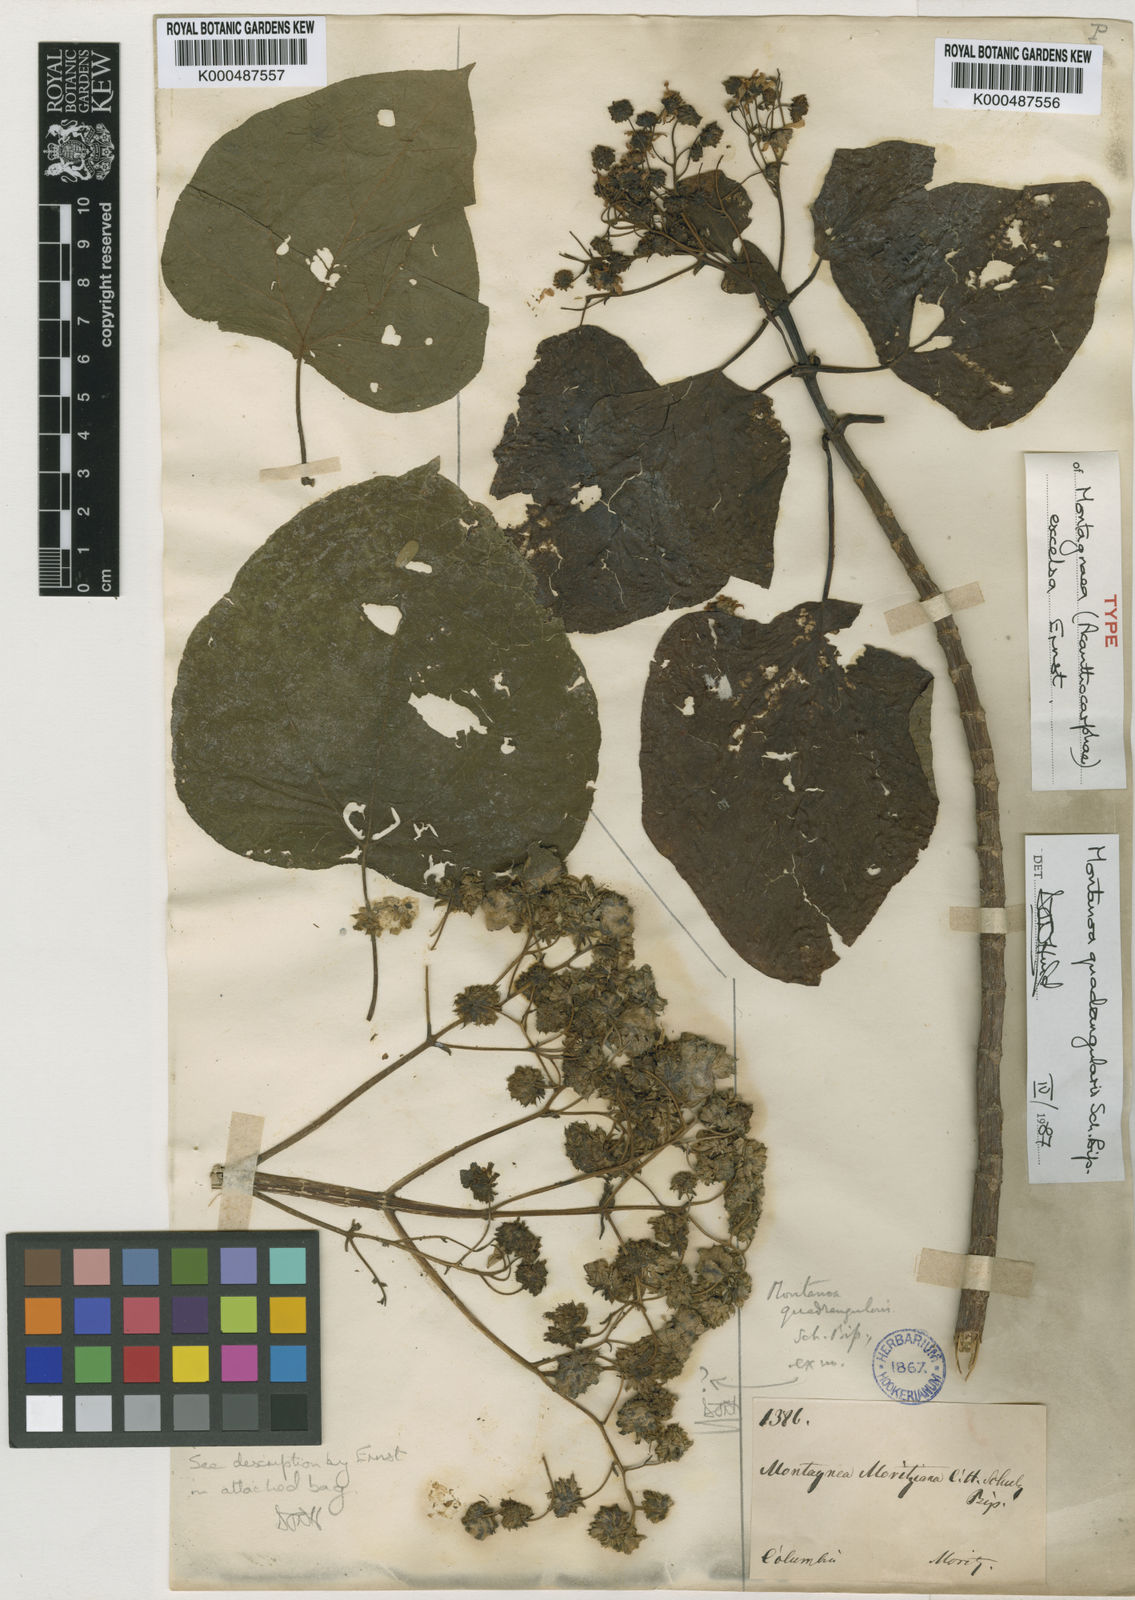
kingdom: Plantae
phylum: Tracheophyta
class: Magnoliopsida
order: Asterales
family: Asteraceae
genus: Montanoa
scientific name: Montanoa quadrangularis
